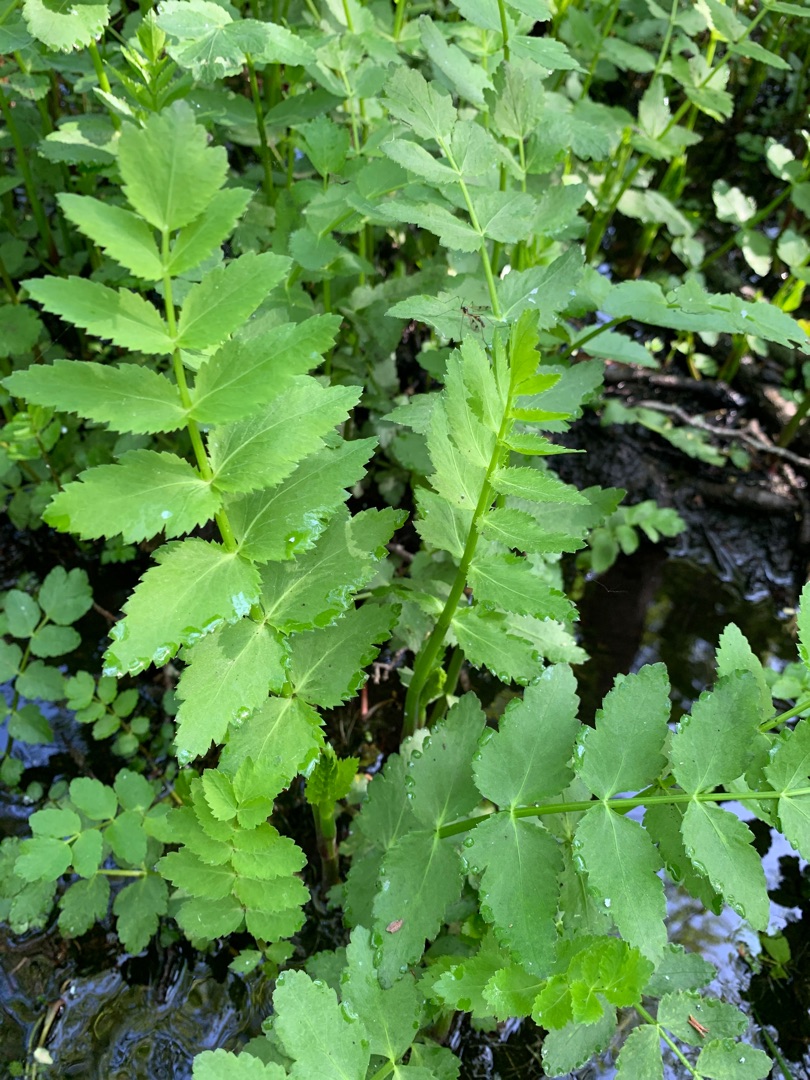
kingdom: Plantae
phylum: Tracheophyta
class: Magnoliopsida
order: Apiales
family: Apiaceae
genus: Berula
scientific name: Berula erecta
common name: Sideskærm
